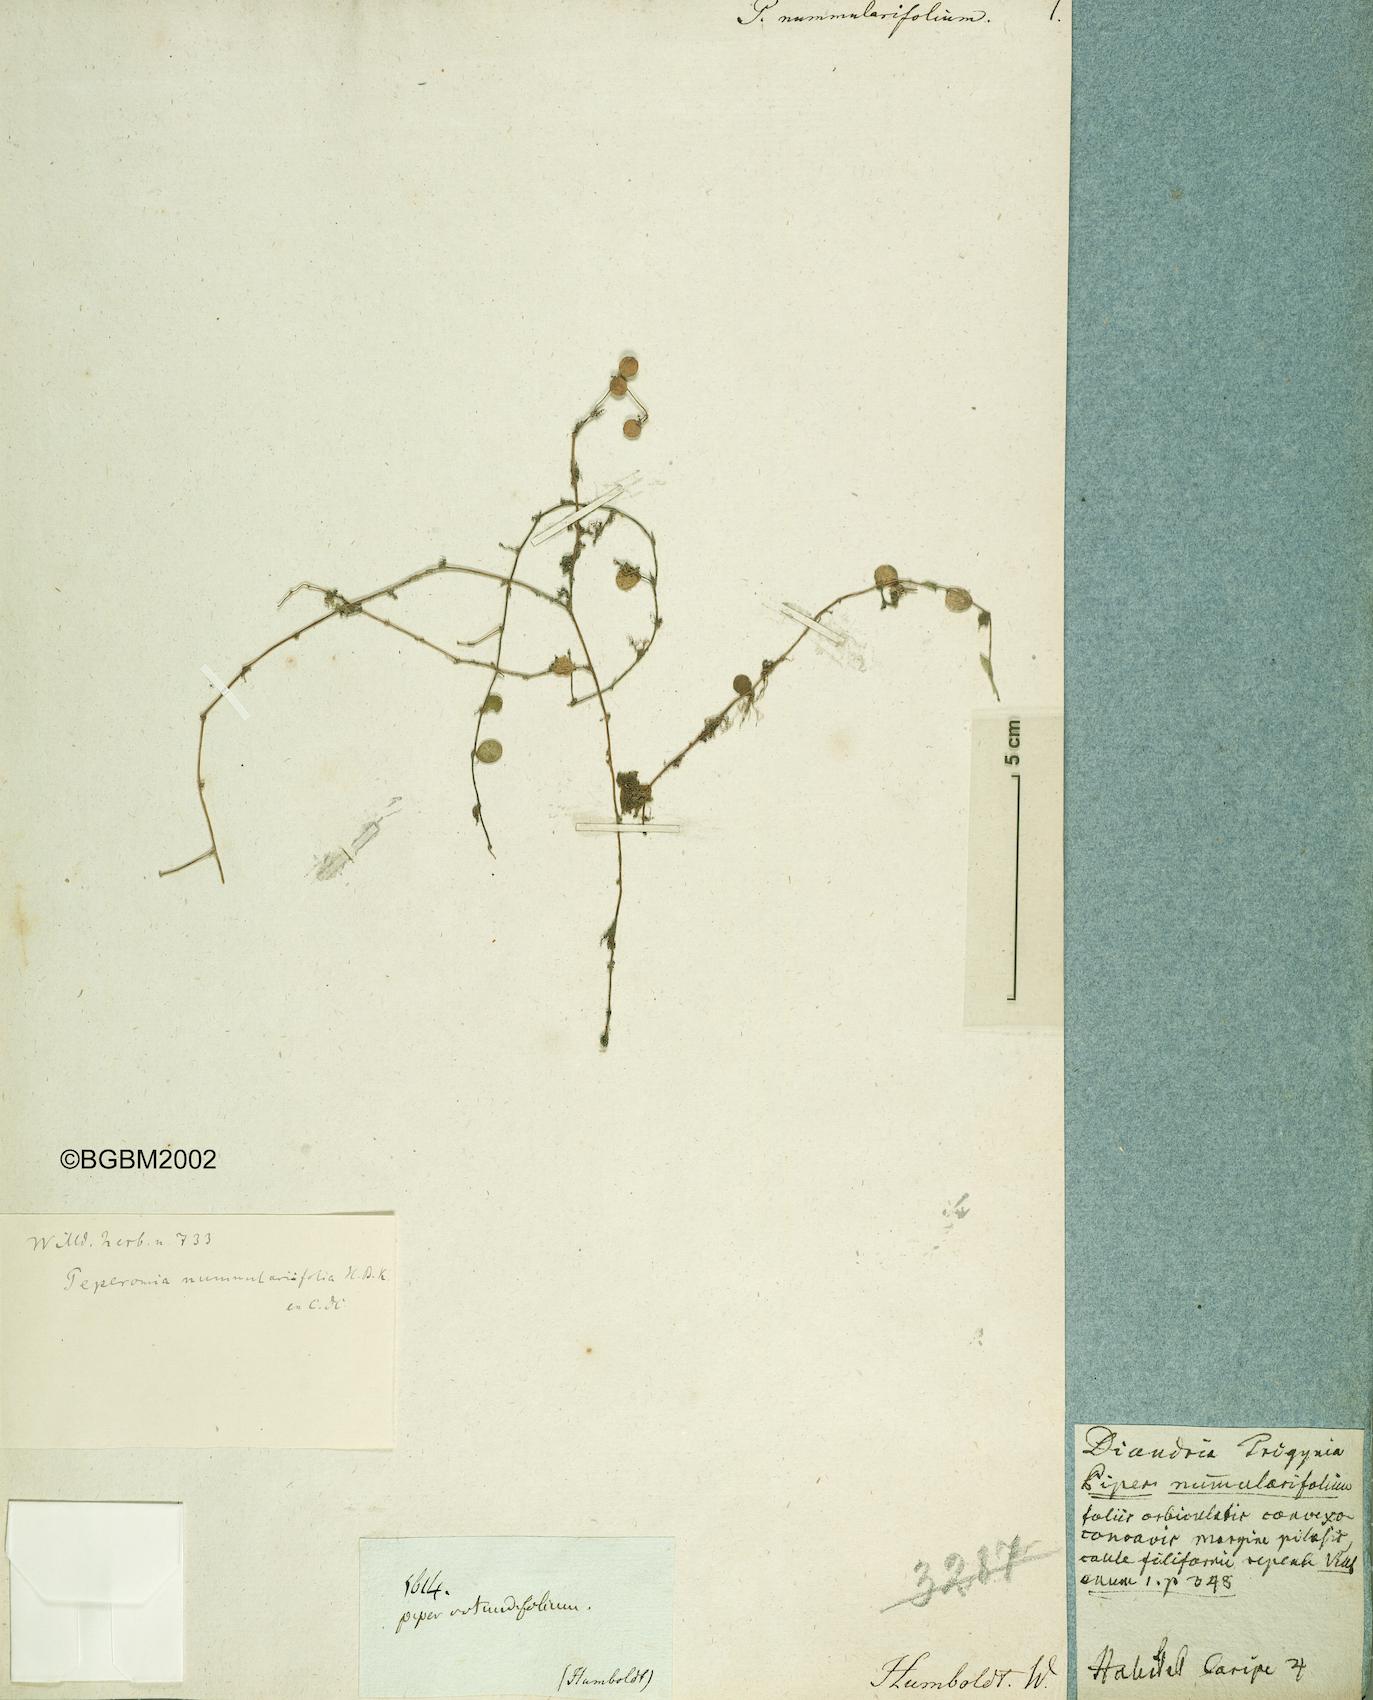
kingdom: Plantae
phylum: Tracheophyta
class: Magnoliopsida
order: Piperales
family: Piperaceae
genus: Peperomia
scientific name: Peperomia rotundifolia
